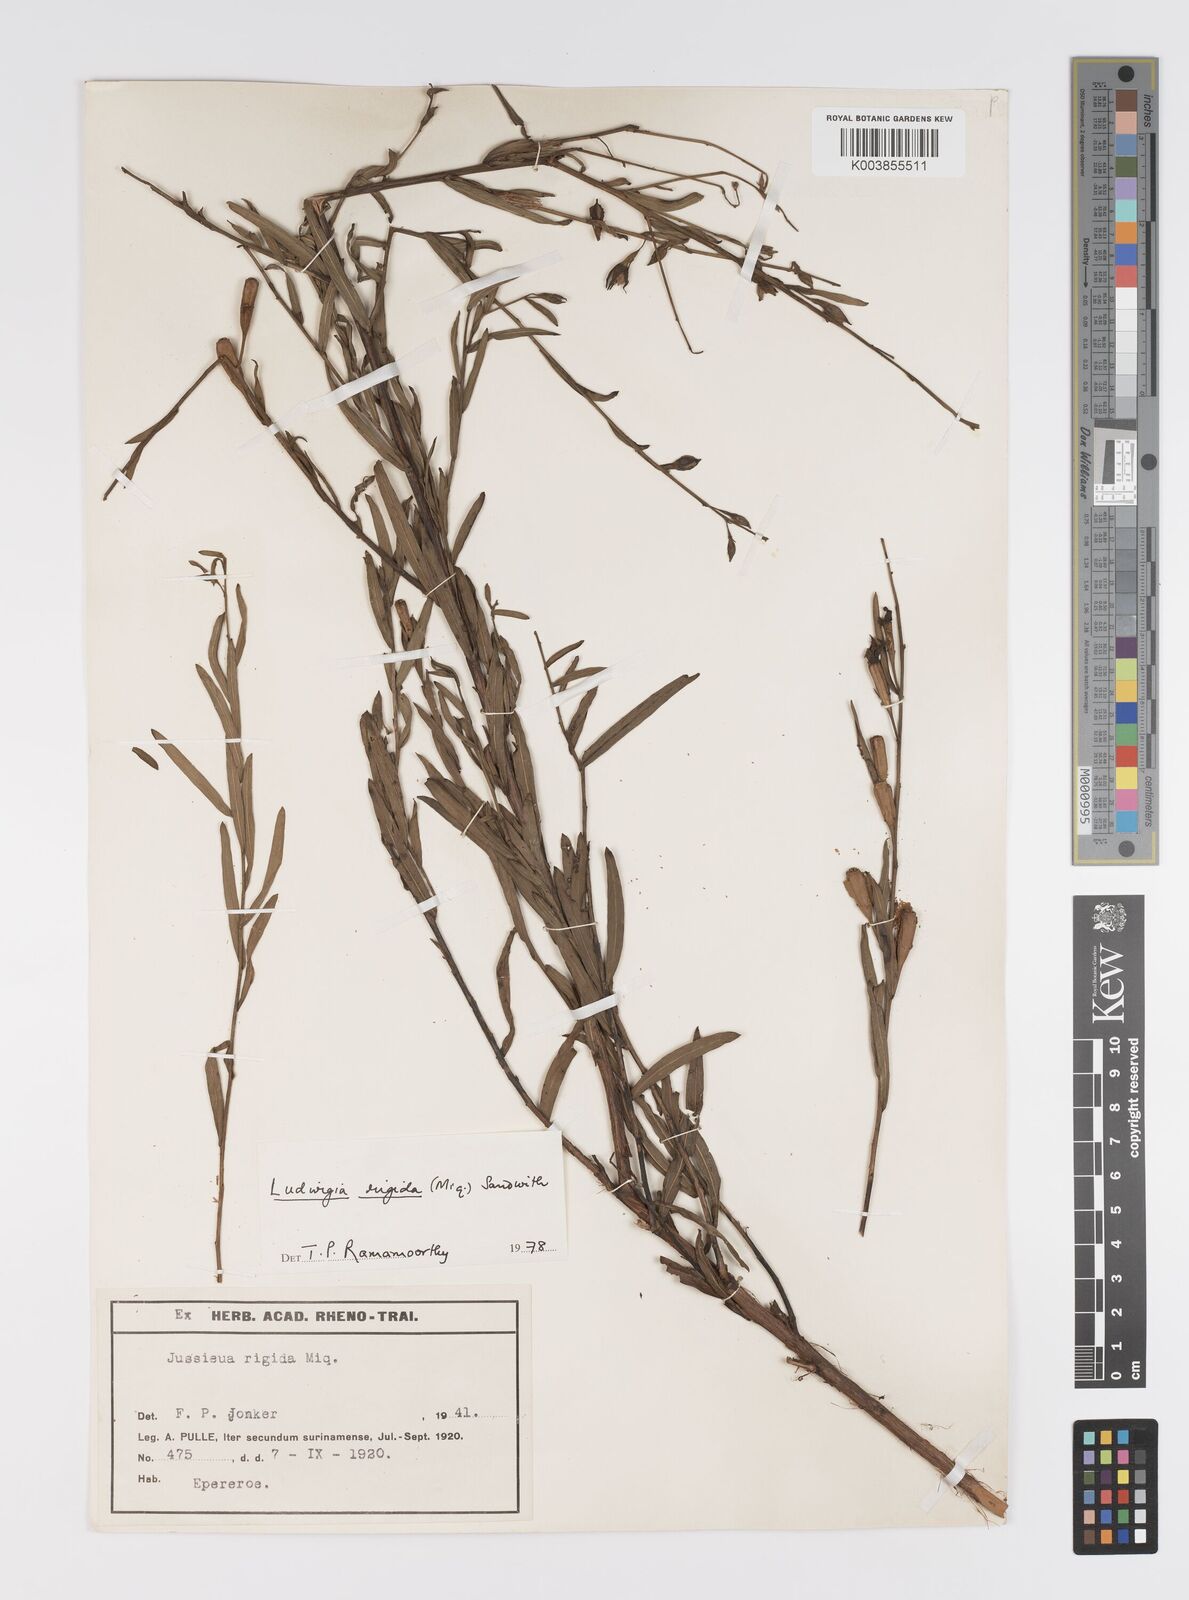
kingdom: Plantae
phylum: Tracheophyta
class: Magnoliopsida
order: Myrtales
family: Onagraceae
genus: Ludwigia
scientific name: Ludwigia rigida
